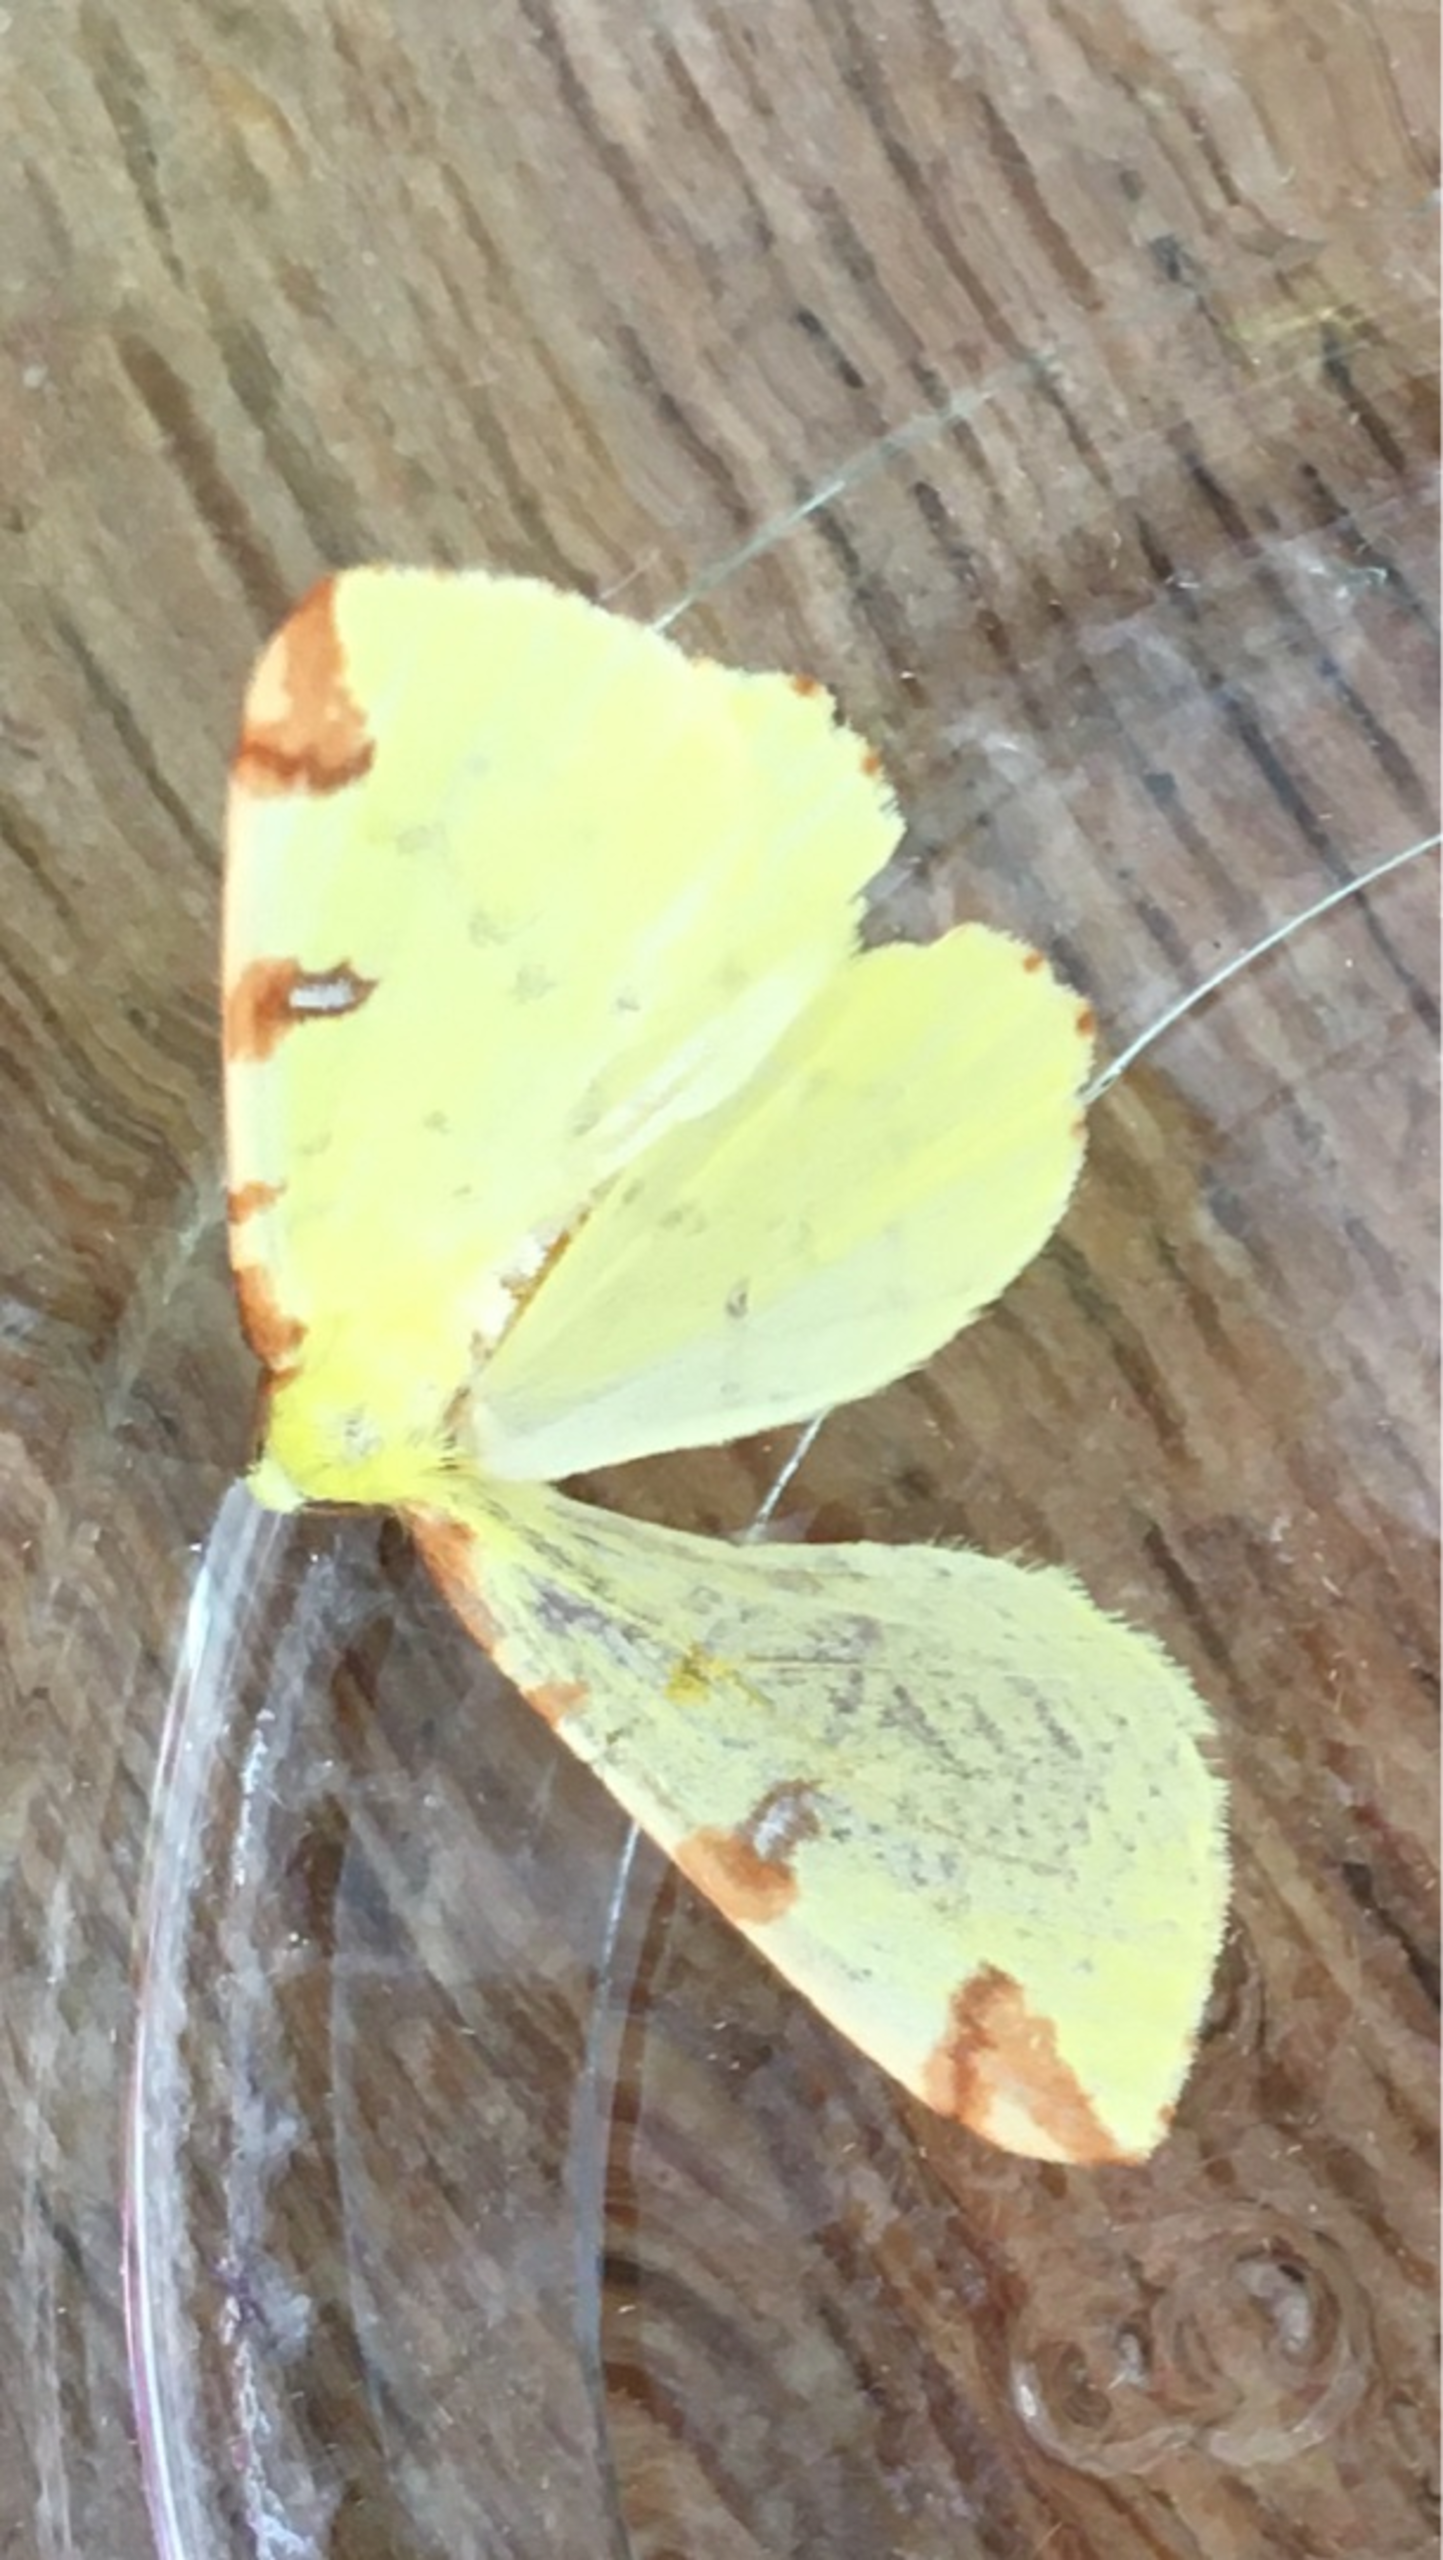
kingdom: Animalia
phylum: Arthropoda
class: Insecta
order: Lepidoptera
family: Geometridae
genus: Opisthograptis
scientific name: Opisthograptis luteolata
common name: Citronmåler
